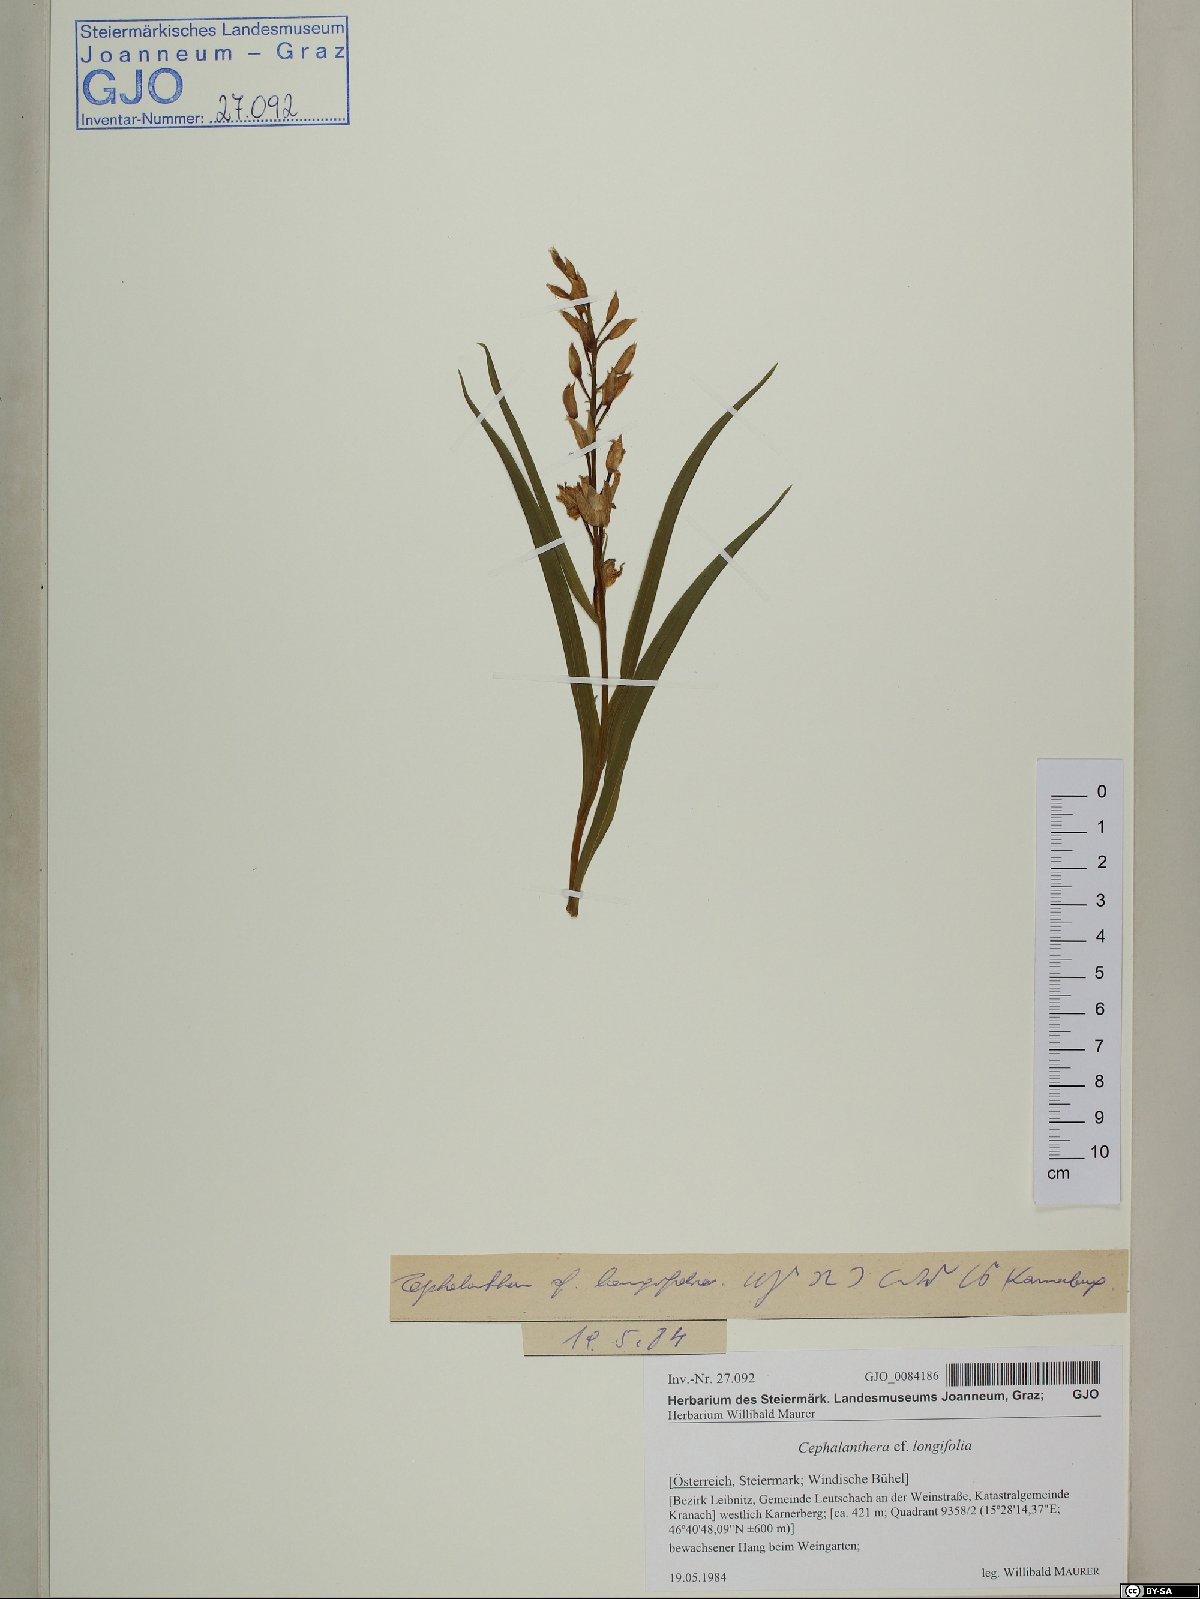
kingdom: Plantae
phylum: Tracheophyta
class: Liliopsida
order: Asparagales
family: Orchidaceae
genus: Cephalanthera
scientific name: Cephalanthera longifolia
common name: Narrow-leaved helleborine
